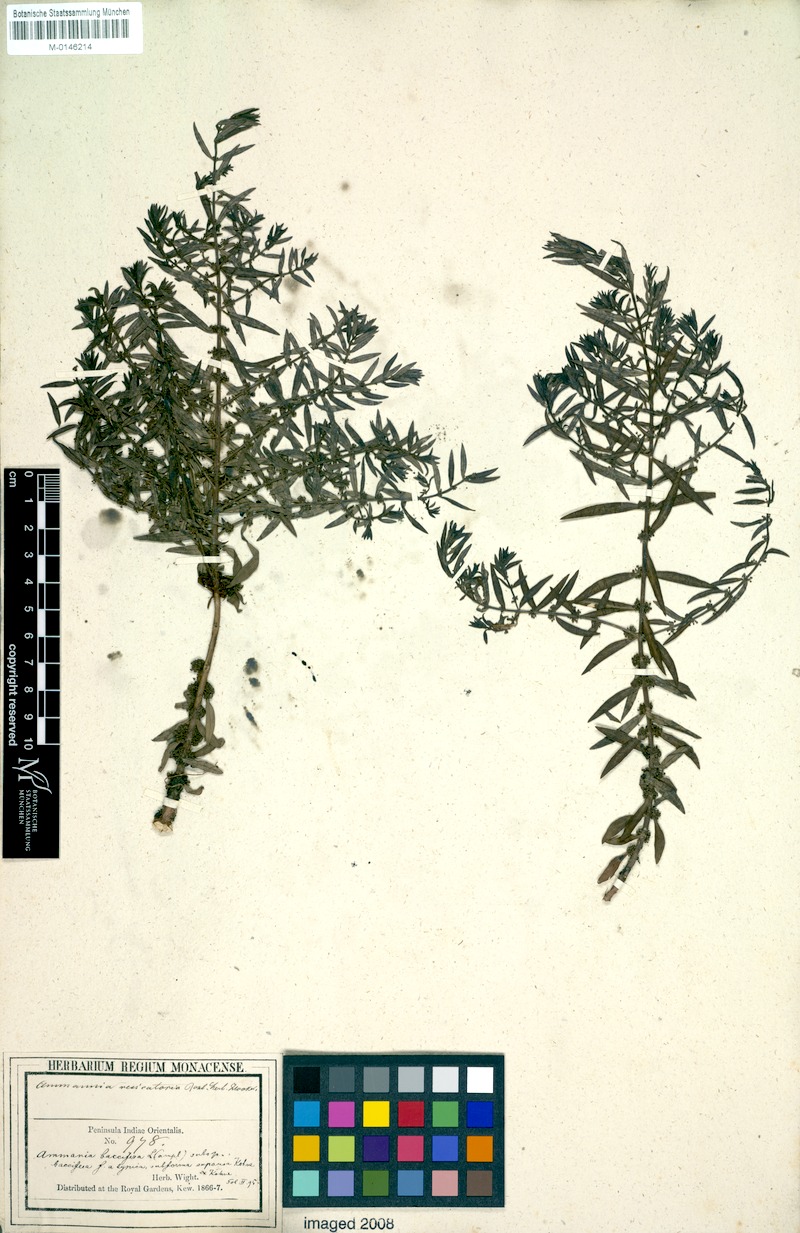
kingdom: Plantae
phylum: Tracheophyta
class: Magnoliopsida
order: Myrtales
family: Lythraceae
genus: Ammannia
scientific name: Ammannia baccifera
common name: Blistering ammania
